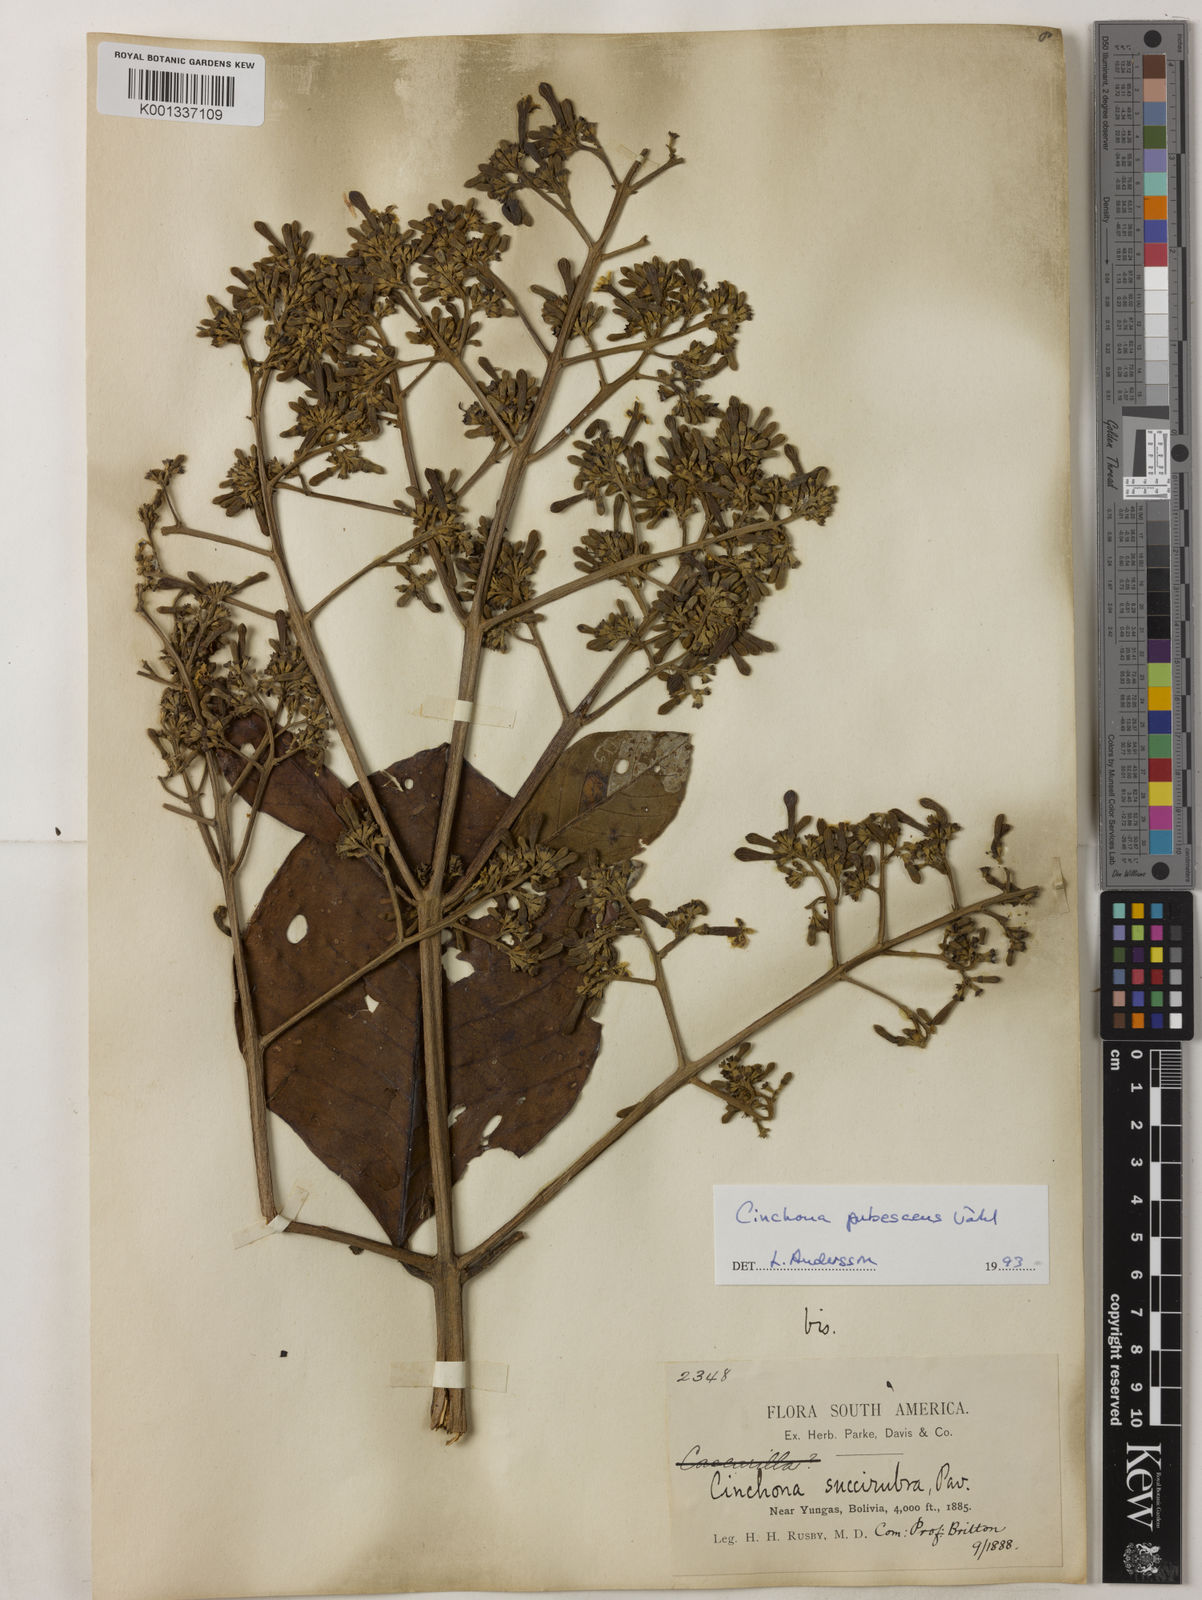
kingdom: Plantae
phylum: Tracheophyta
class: Magnoliopsida
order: Gentianales
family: Rubiaceae
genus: Cinchona
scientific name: Cinchona pubescens
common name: Quinine
